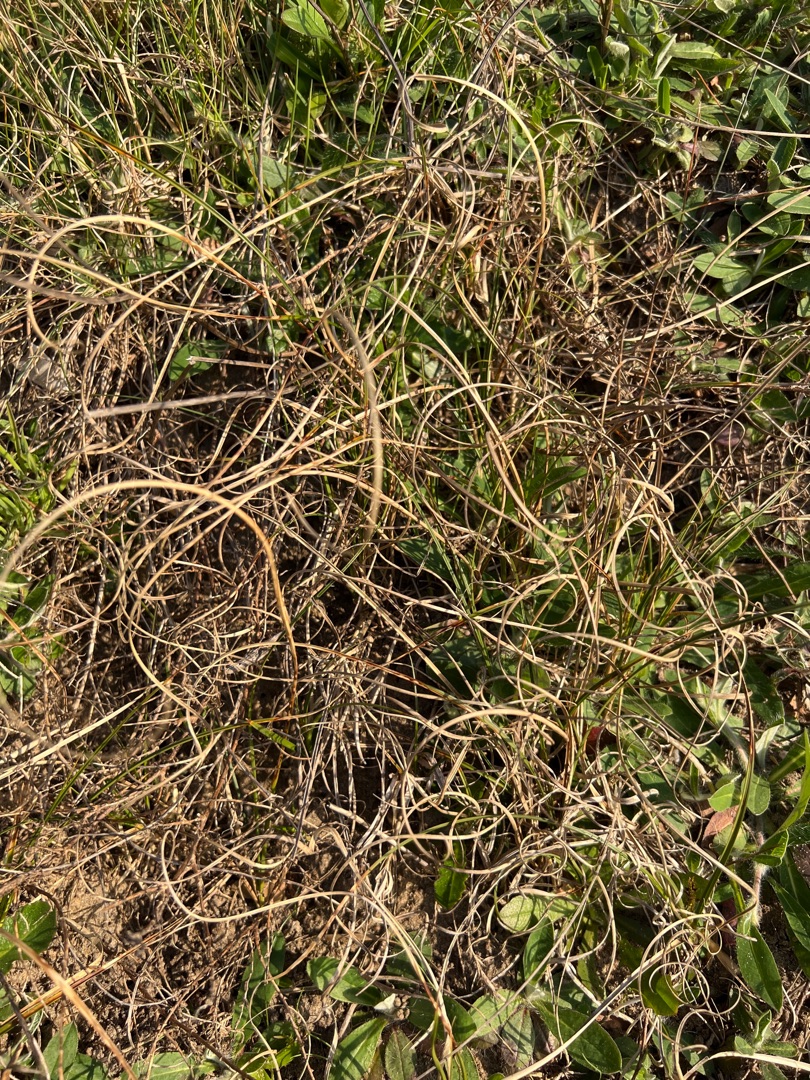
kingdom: Plantae
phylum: Tracheophyta
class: Liliopsida
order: Poales
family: Cyperaceae
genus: Carex
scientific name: Carex arenaria
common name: Sand-star
